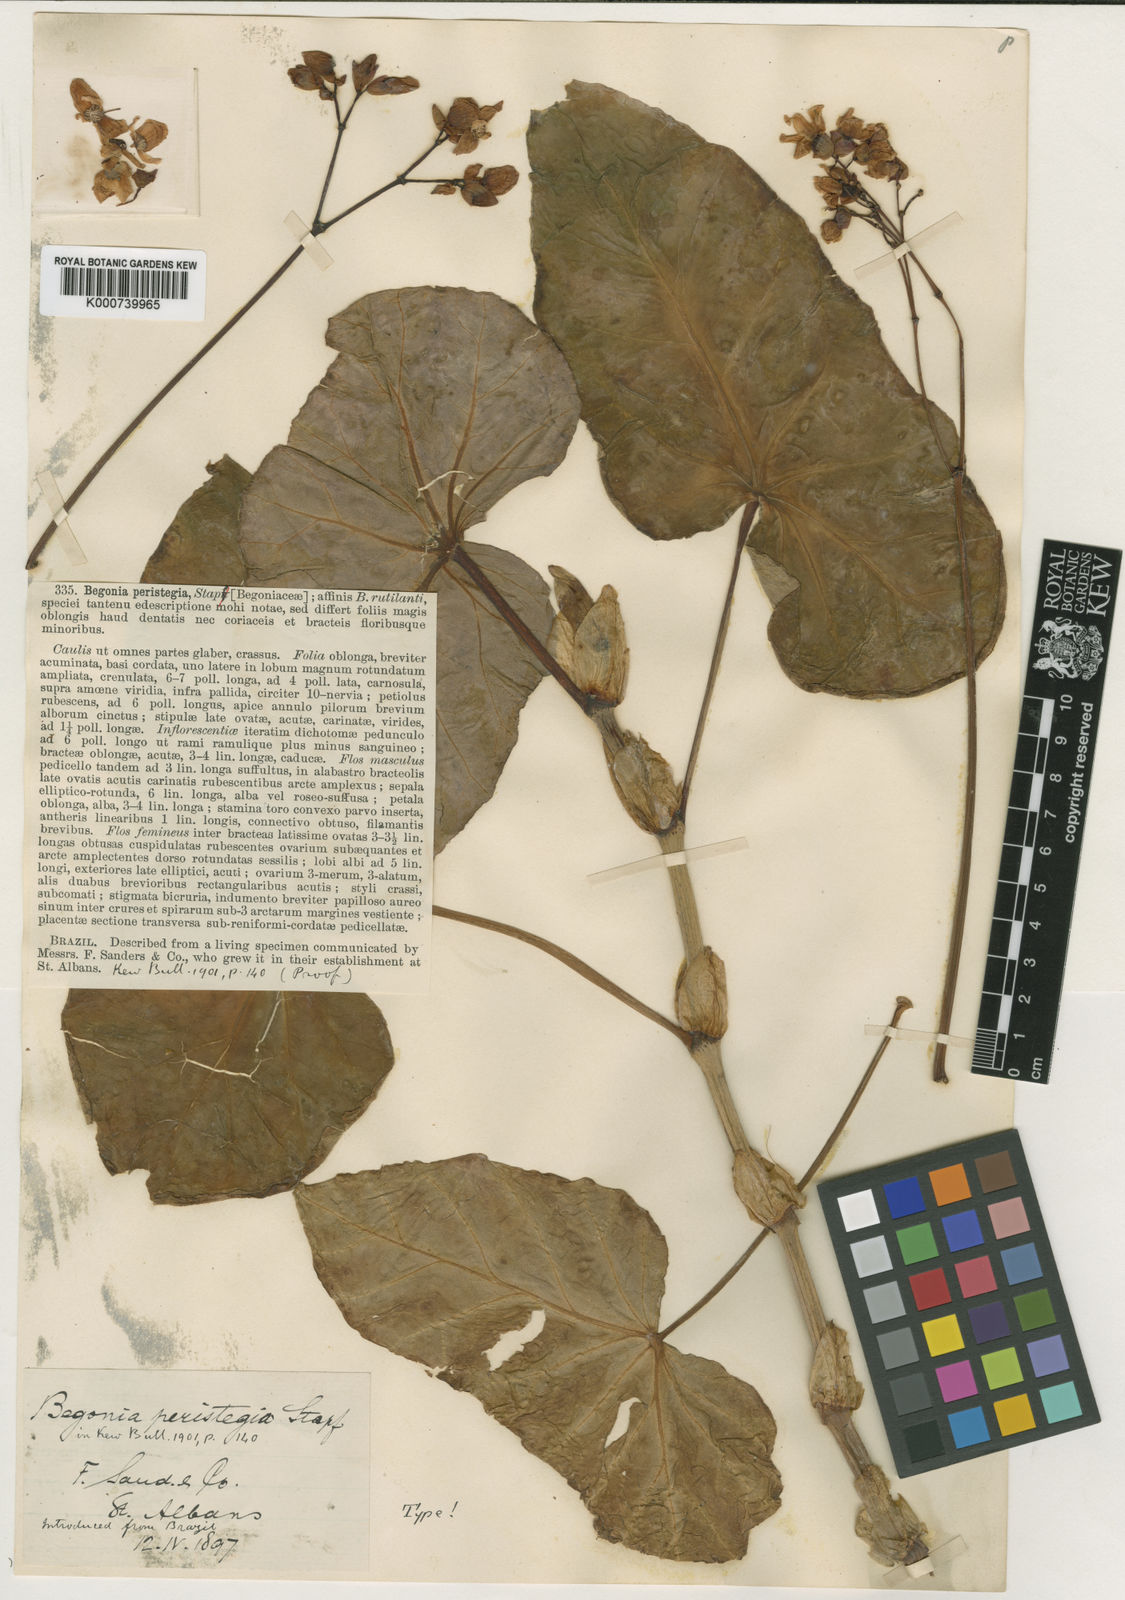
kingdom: Plantae
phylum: Tracheophyta
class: Magnoliopsida
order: Cucurbitales
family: Begoniaceae
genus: Begonia
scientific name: Begonia valdensium
